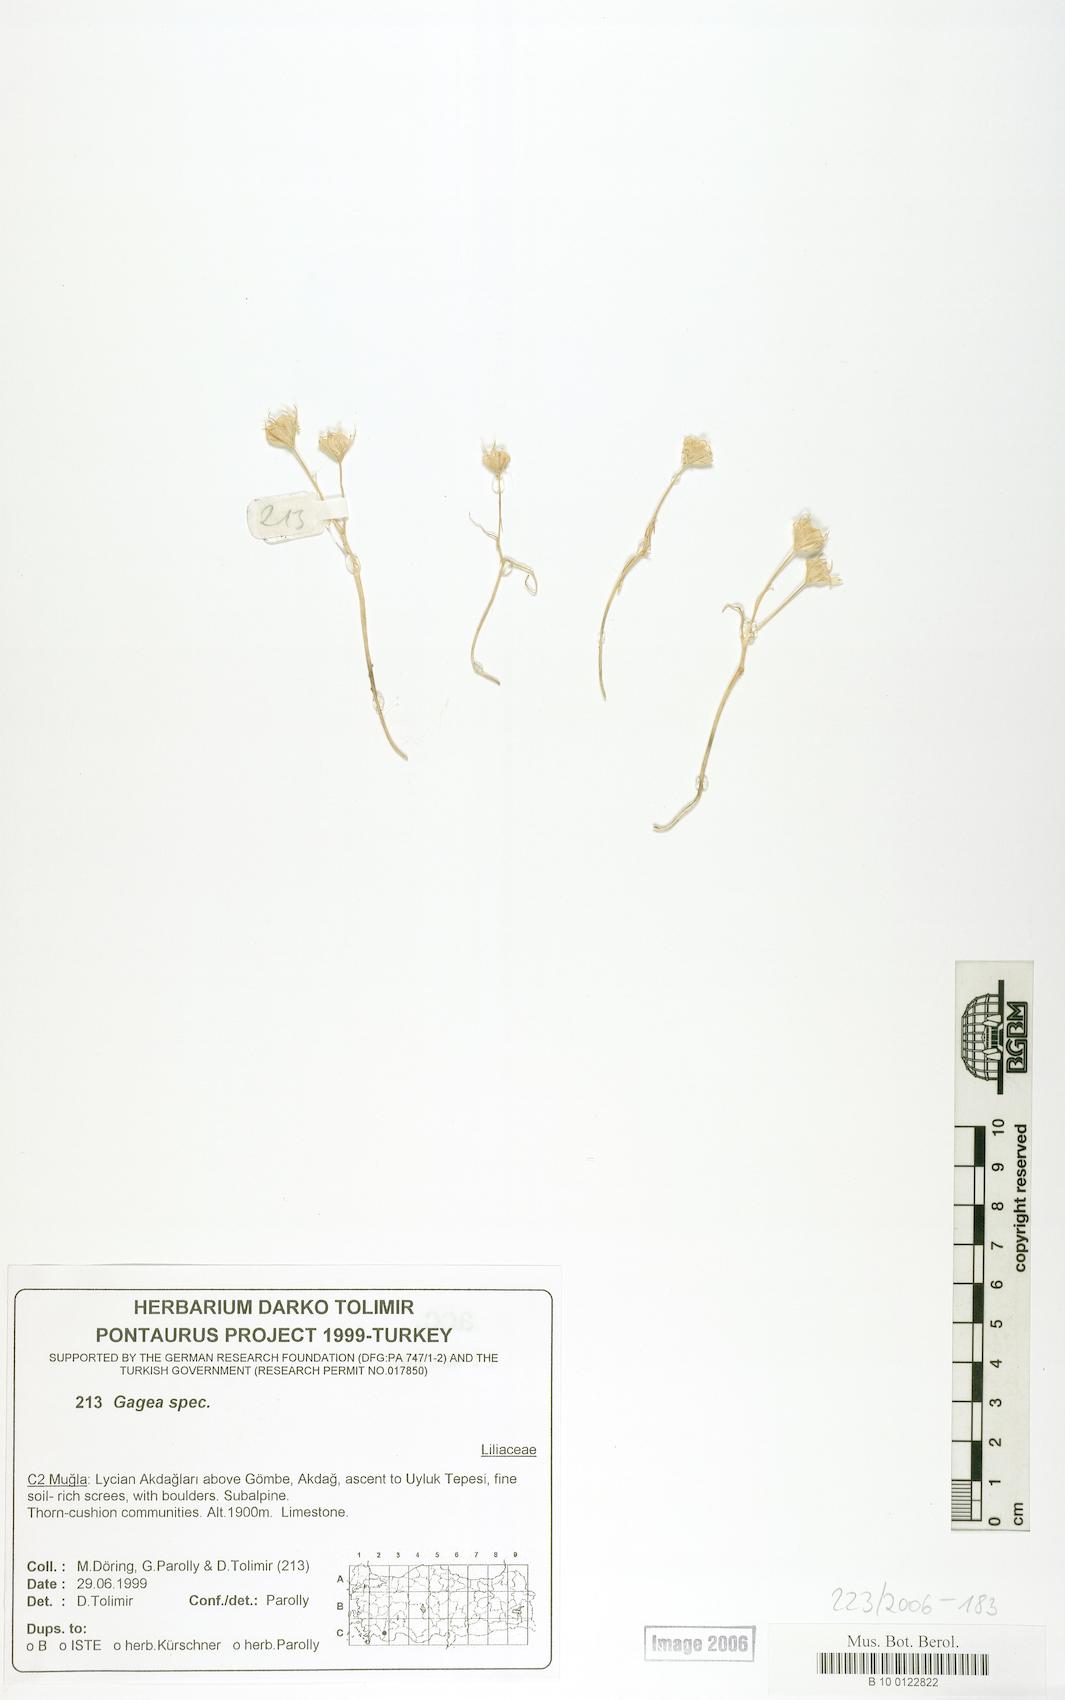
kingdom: Plantae
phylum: Tracheophyta
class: Liliopsida
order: Liliales
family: Liliaceae
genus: Gagea
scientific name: Gagea
